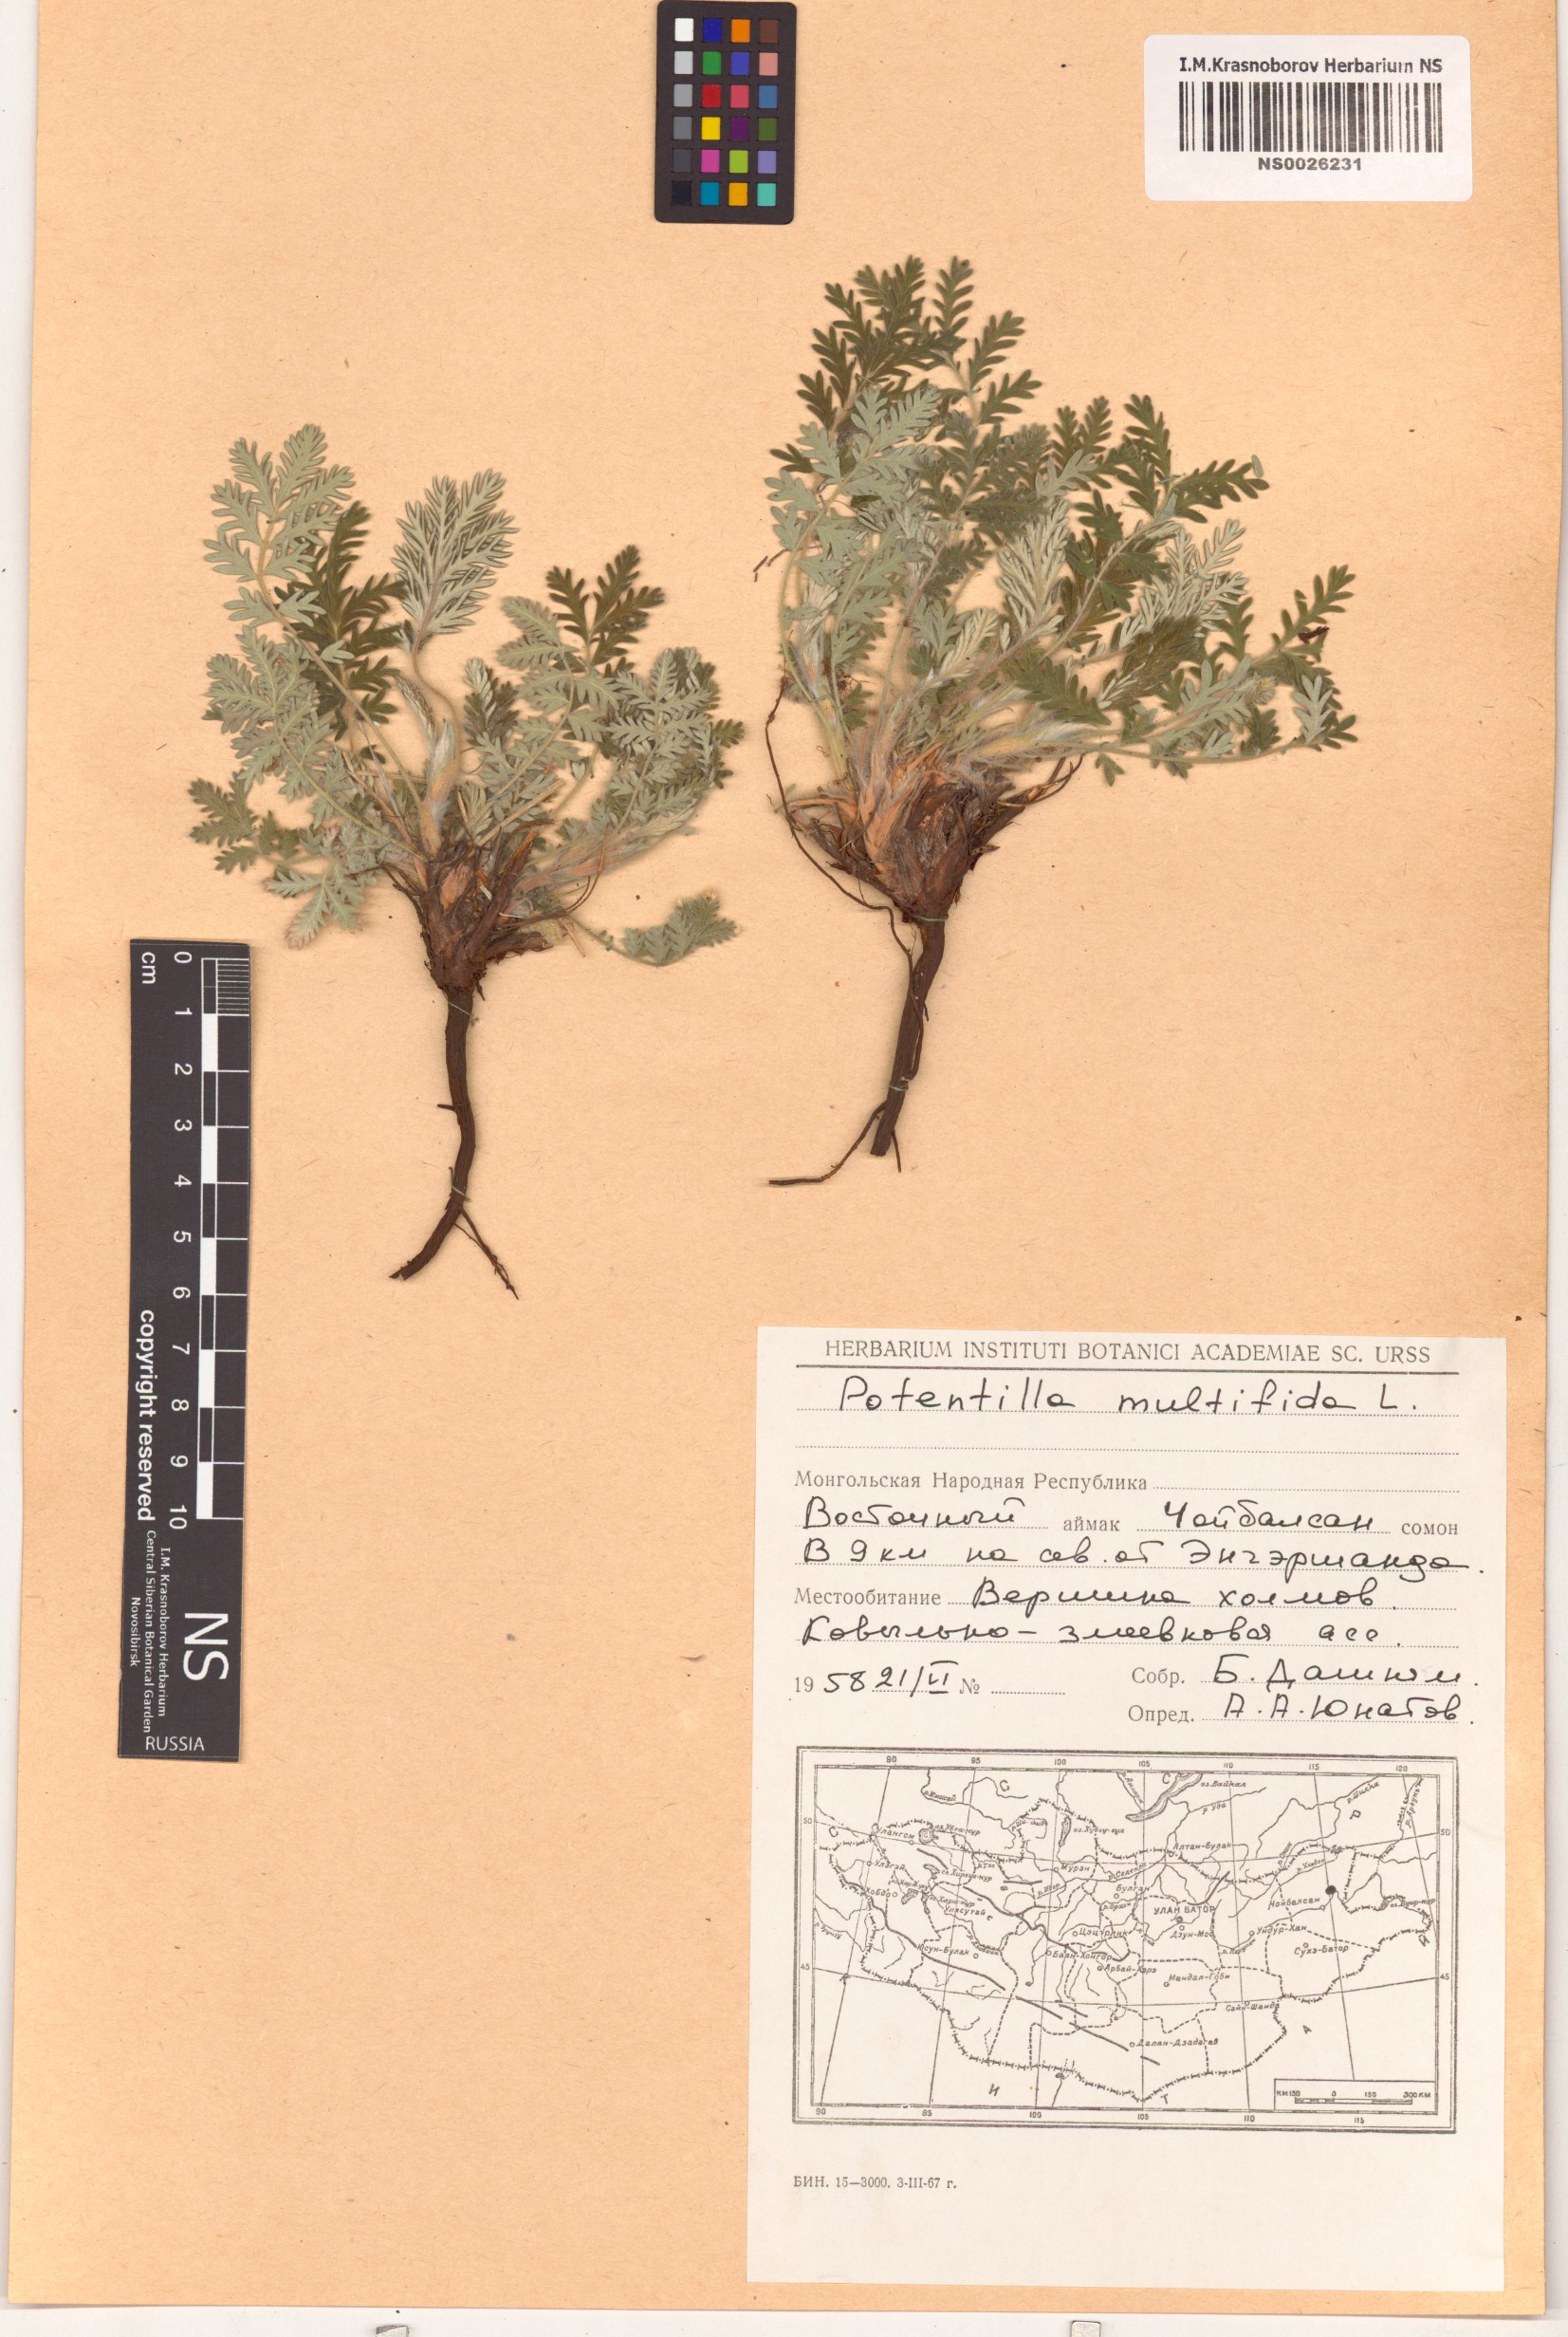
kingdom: Plantae
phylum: Tracheophyta
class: Magnoliopsida
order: Rosales
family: Rosaceae
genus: Potentilla
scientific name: Potentilla multifida
